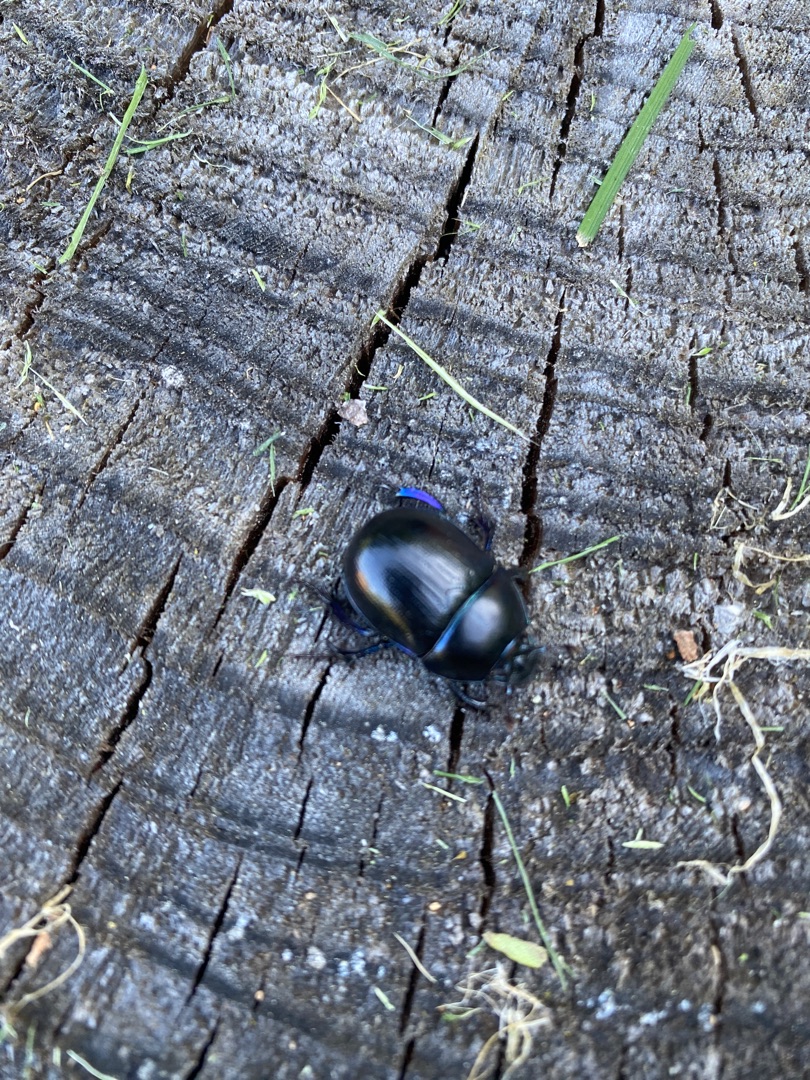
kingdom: Animalia
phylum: Arthropoda
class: Insecta
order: Coleoptera
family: Geotrupidae
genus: Anoplotrupes
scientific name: Anoplotrupes stercorosus
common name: Skovskarnbasse
